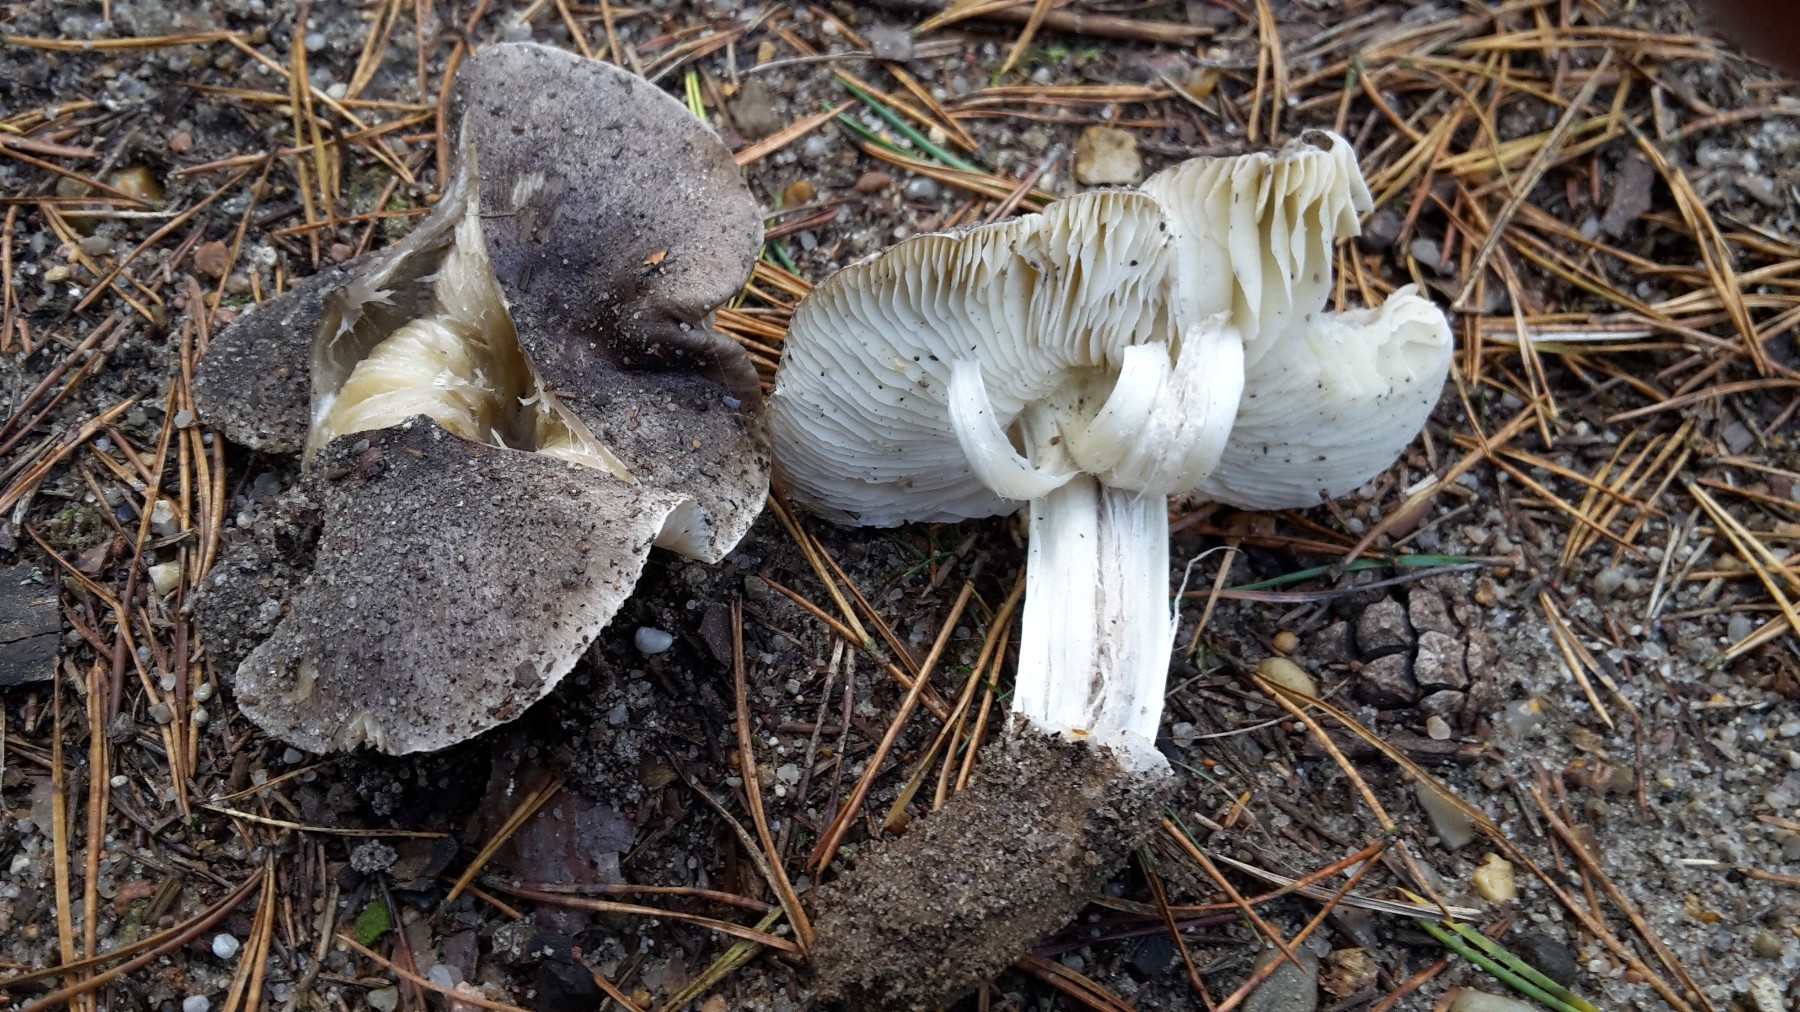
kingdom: Fungi
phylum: Basidiomycota
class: Agaricomycetes
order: Agaricales
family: Tricholomataceae
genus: Tricholoma
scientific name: Tricholoma portentosum
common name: grå ridderhat
